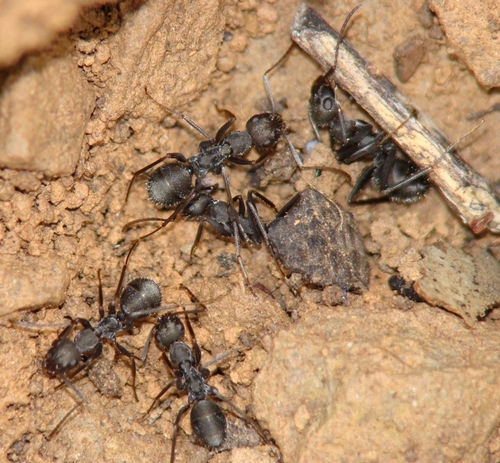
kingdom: Animalia
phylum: Arthropoda
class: Insecta
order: Hymenoptera
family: Formicidae
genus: Formica
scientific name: Formica subrufa
